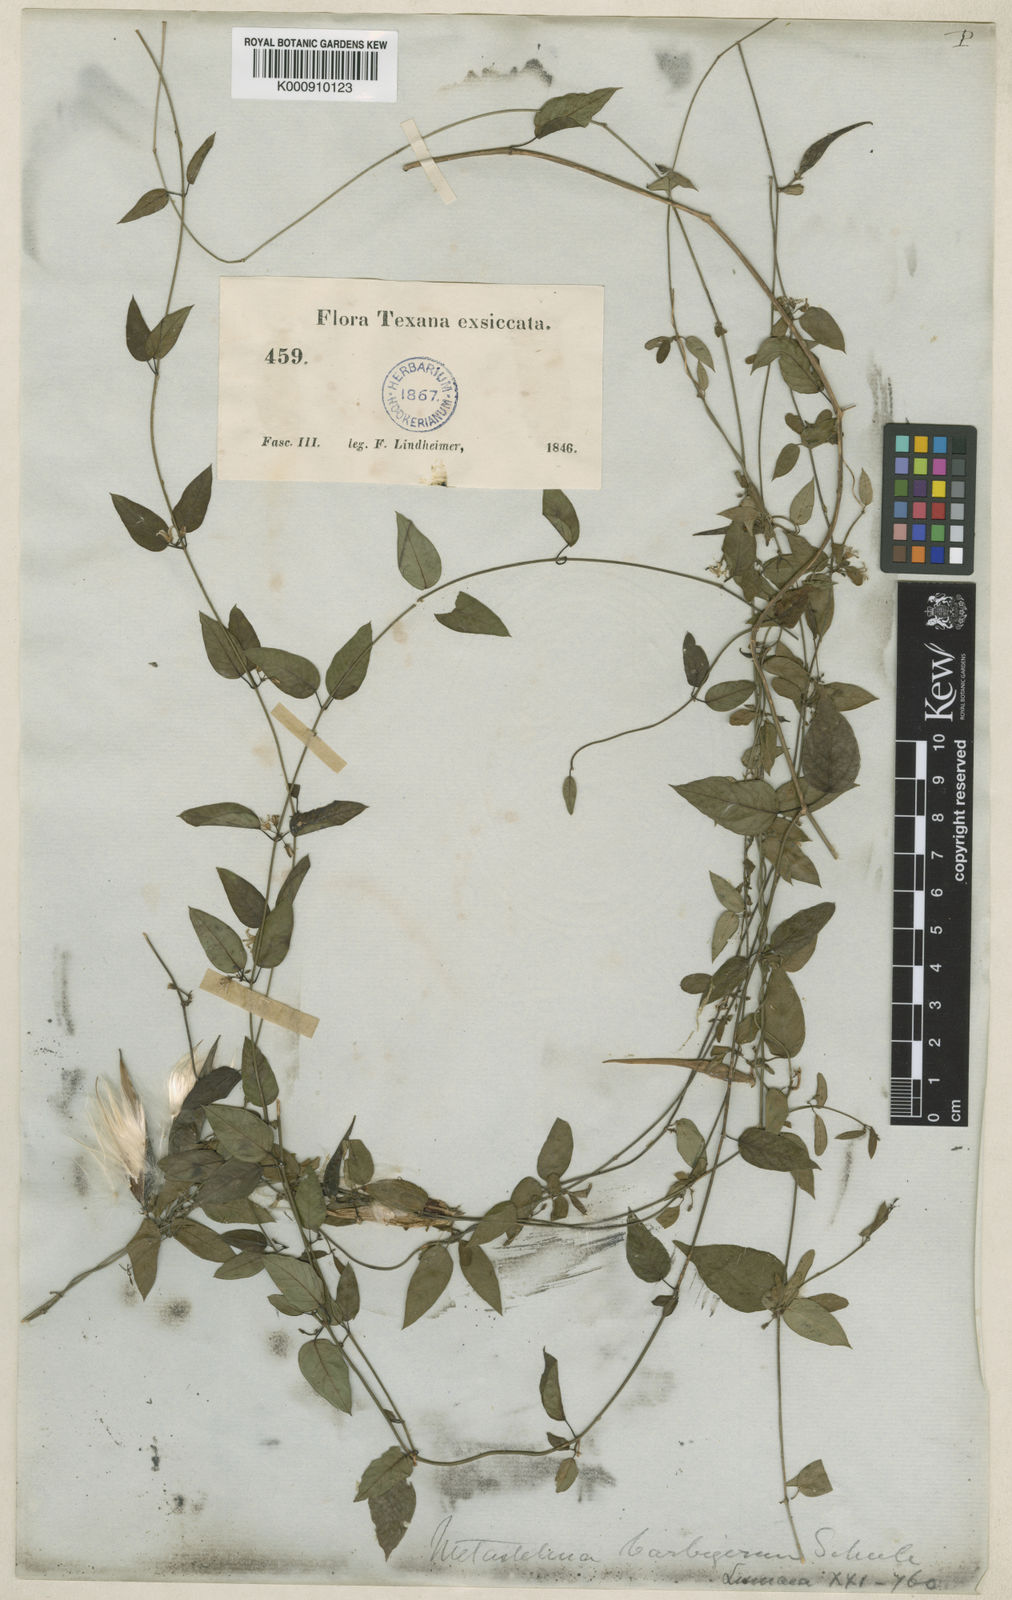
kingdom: Plantae
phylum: Tracheophyta
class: Magnoliopsida
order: Gentianales
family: Apocynaceae
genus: Metastelma
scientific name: Metastelma barbigerum
